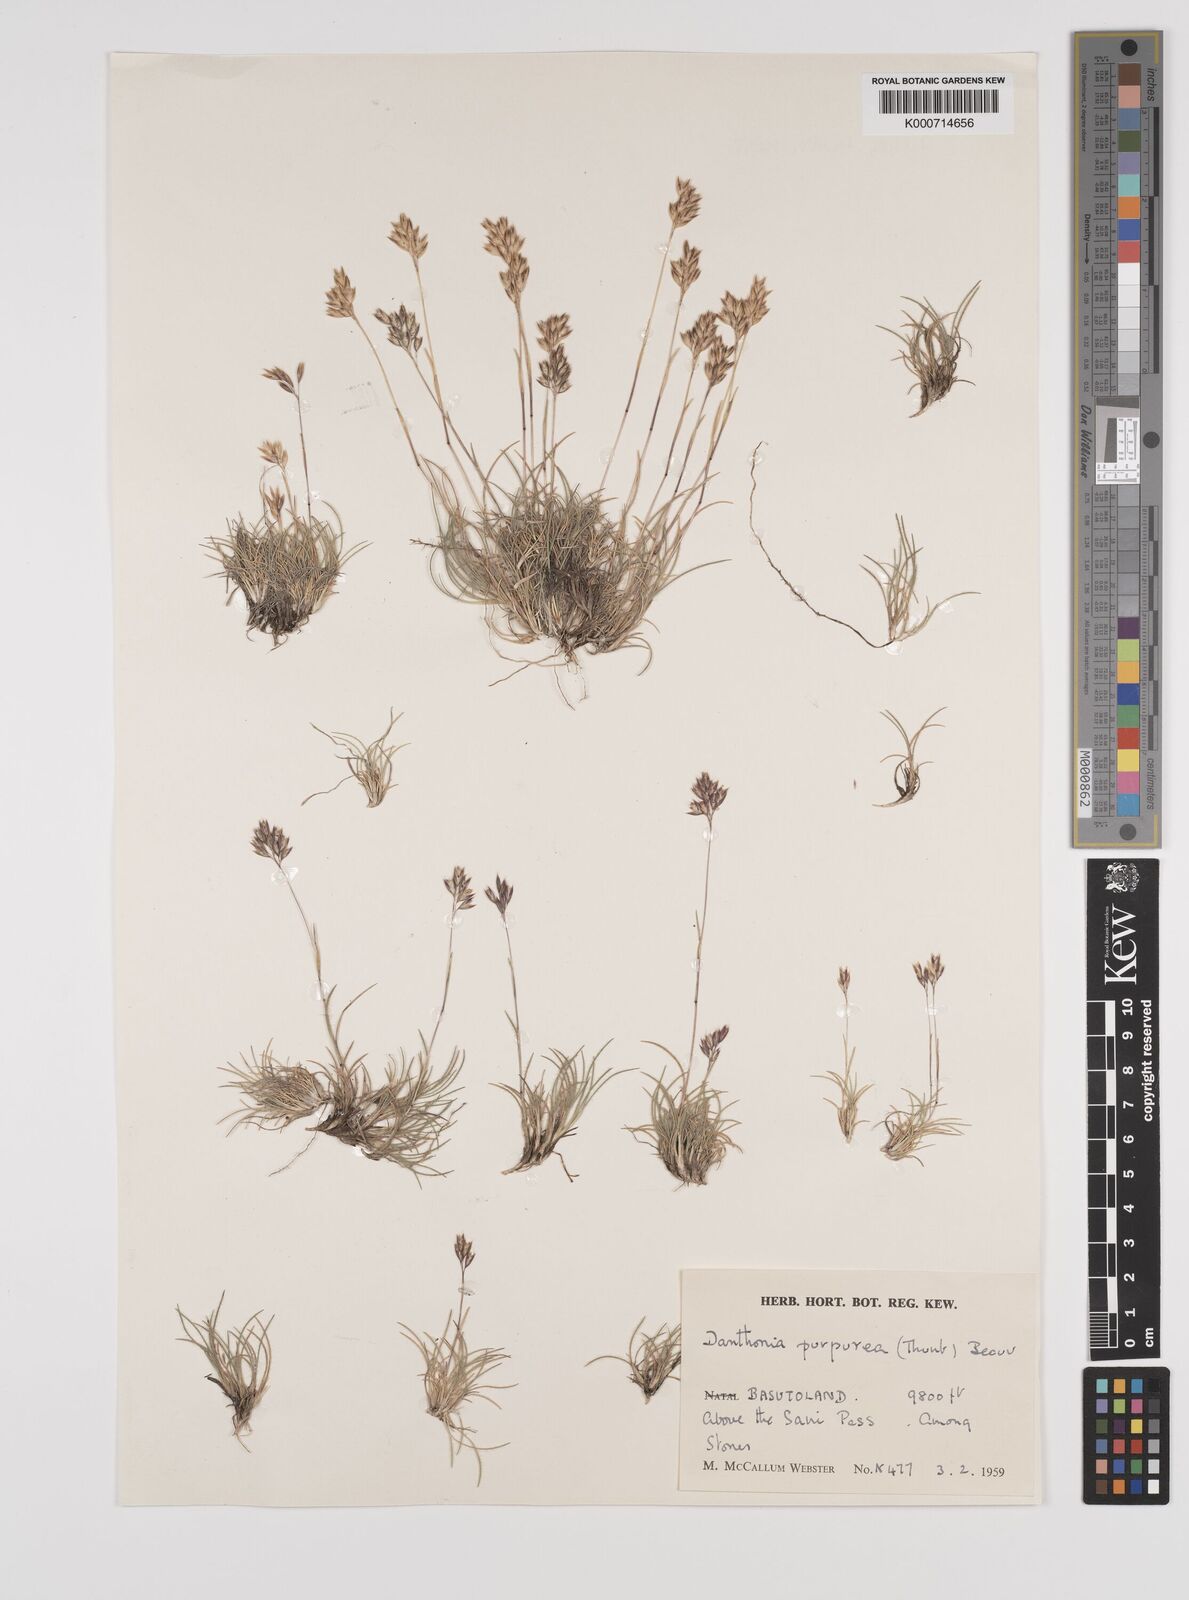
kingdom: Plantae
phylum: Tracheophyta
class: Liliopsida
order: Poales
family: Poaceae
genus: Rytidosperma
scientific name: Rytidosperma
